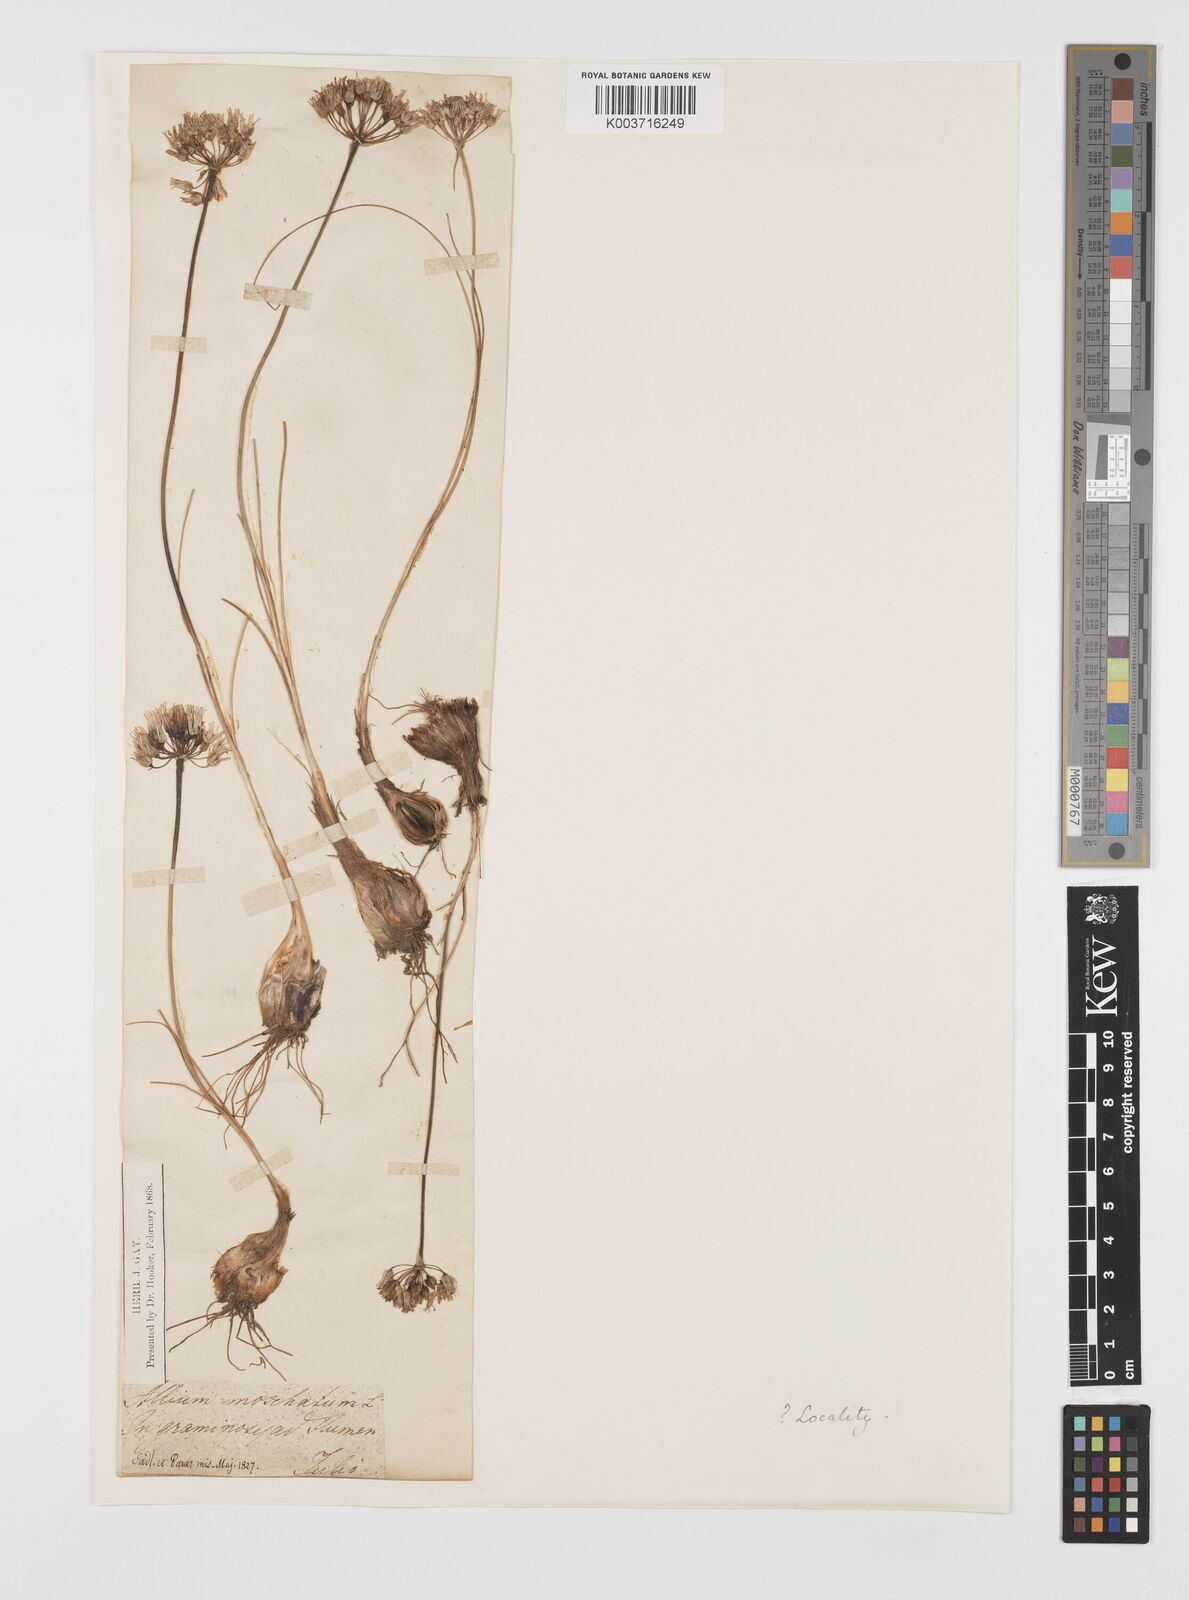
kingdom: Plantae
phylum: Tracheophyta
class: Liliopsida
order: Asparagales
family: Amaryllidaceae
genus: Allium
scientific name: Allium moschatum
